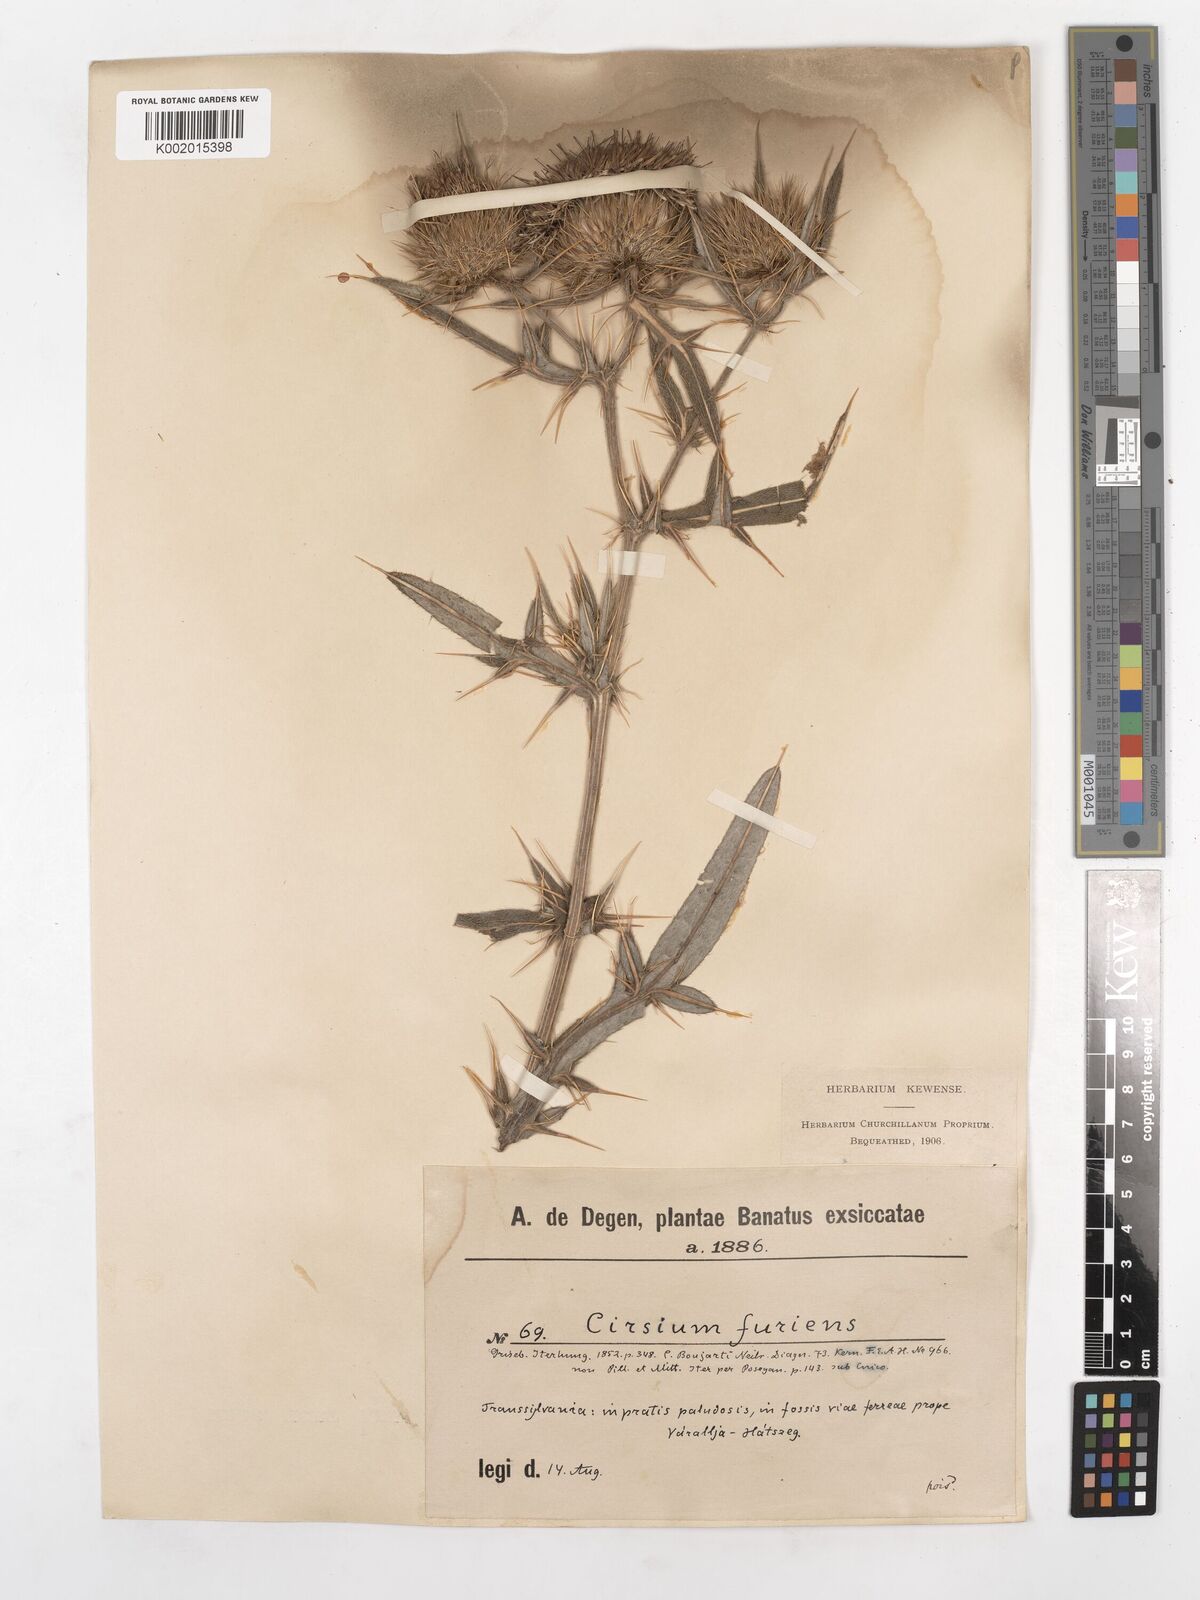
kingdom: Plantae
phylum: Tracheophyta
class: Magnoliopsida
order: Asterales
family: Asteraceae
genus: Lophiolepis
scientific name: Lophiolepis ciliata
